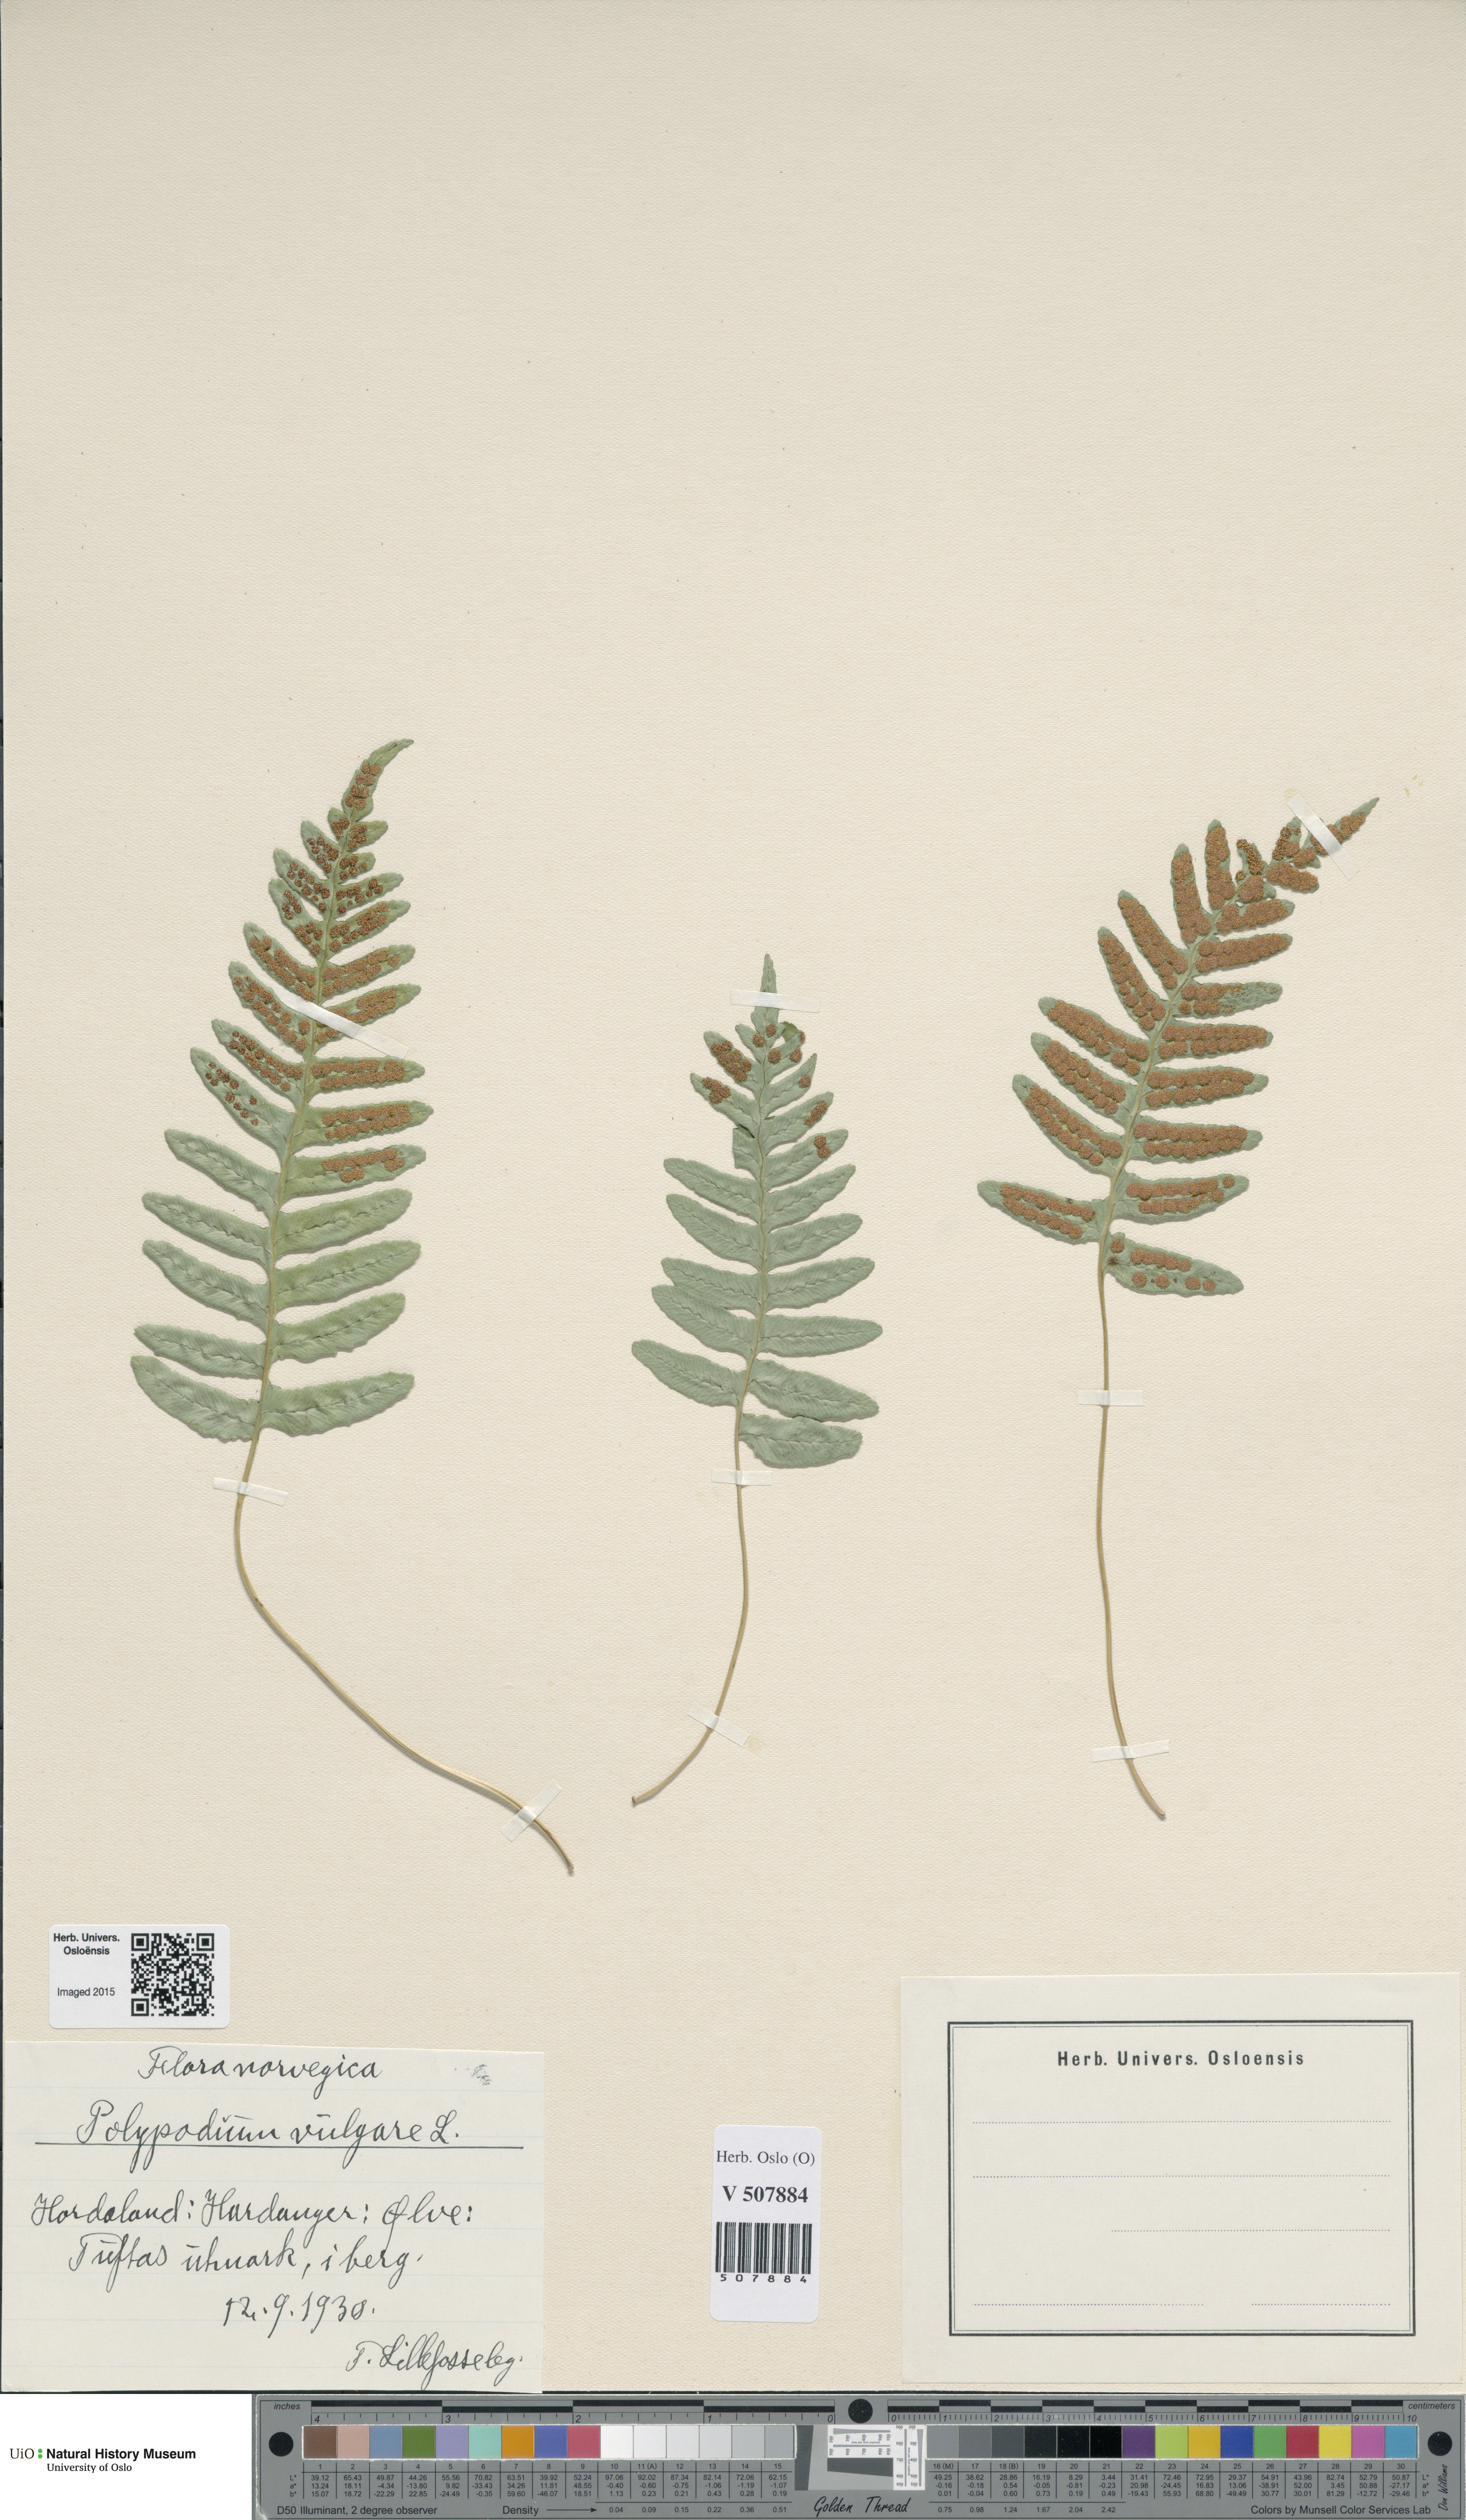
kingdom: Plantae
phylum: Tracheophyta
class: Polypodiopsida
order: Polypodiales
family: Polypodiaceae
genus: Polypodium
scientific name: Polypodium vulgare
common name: Common polypody
